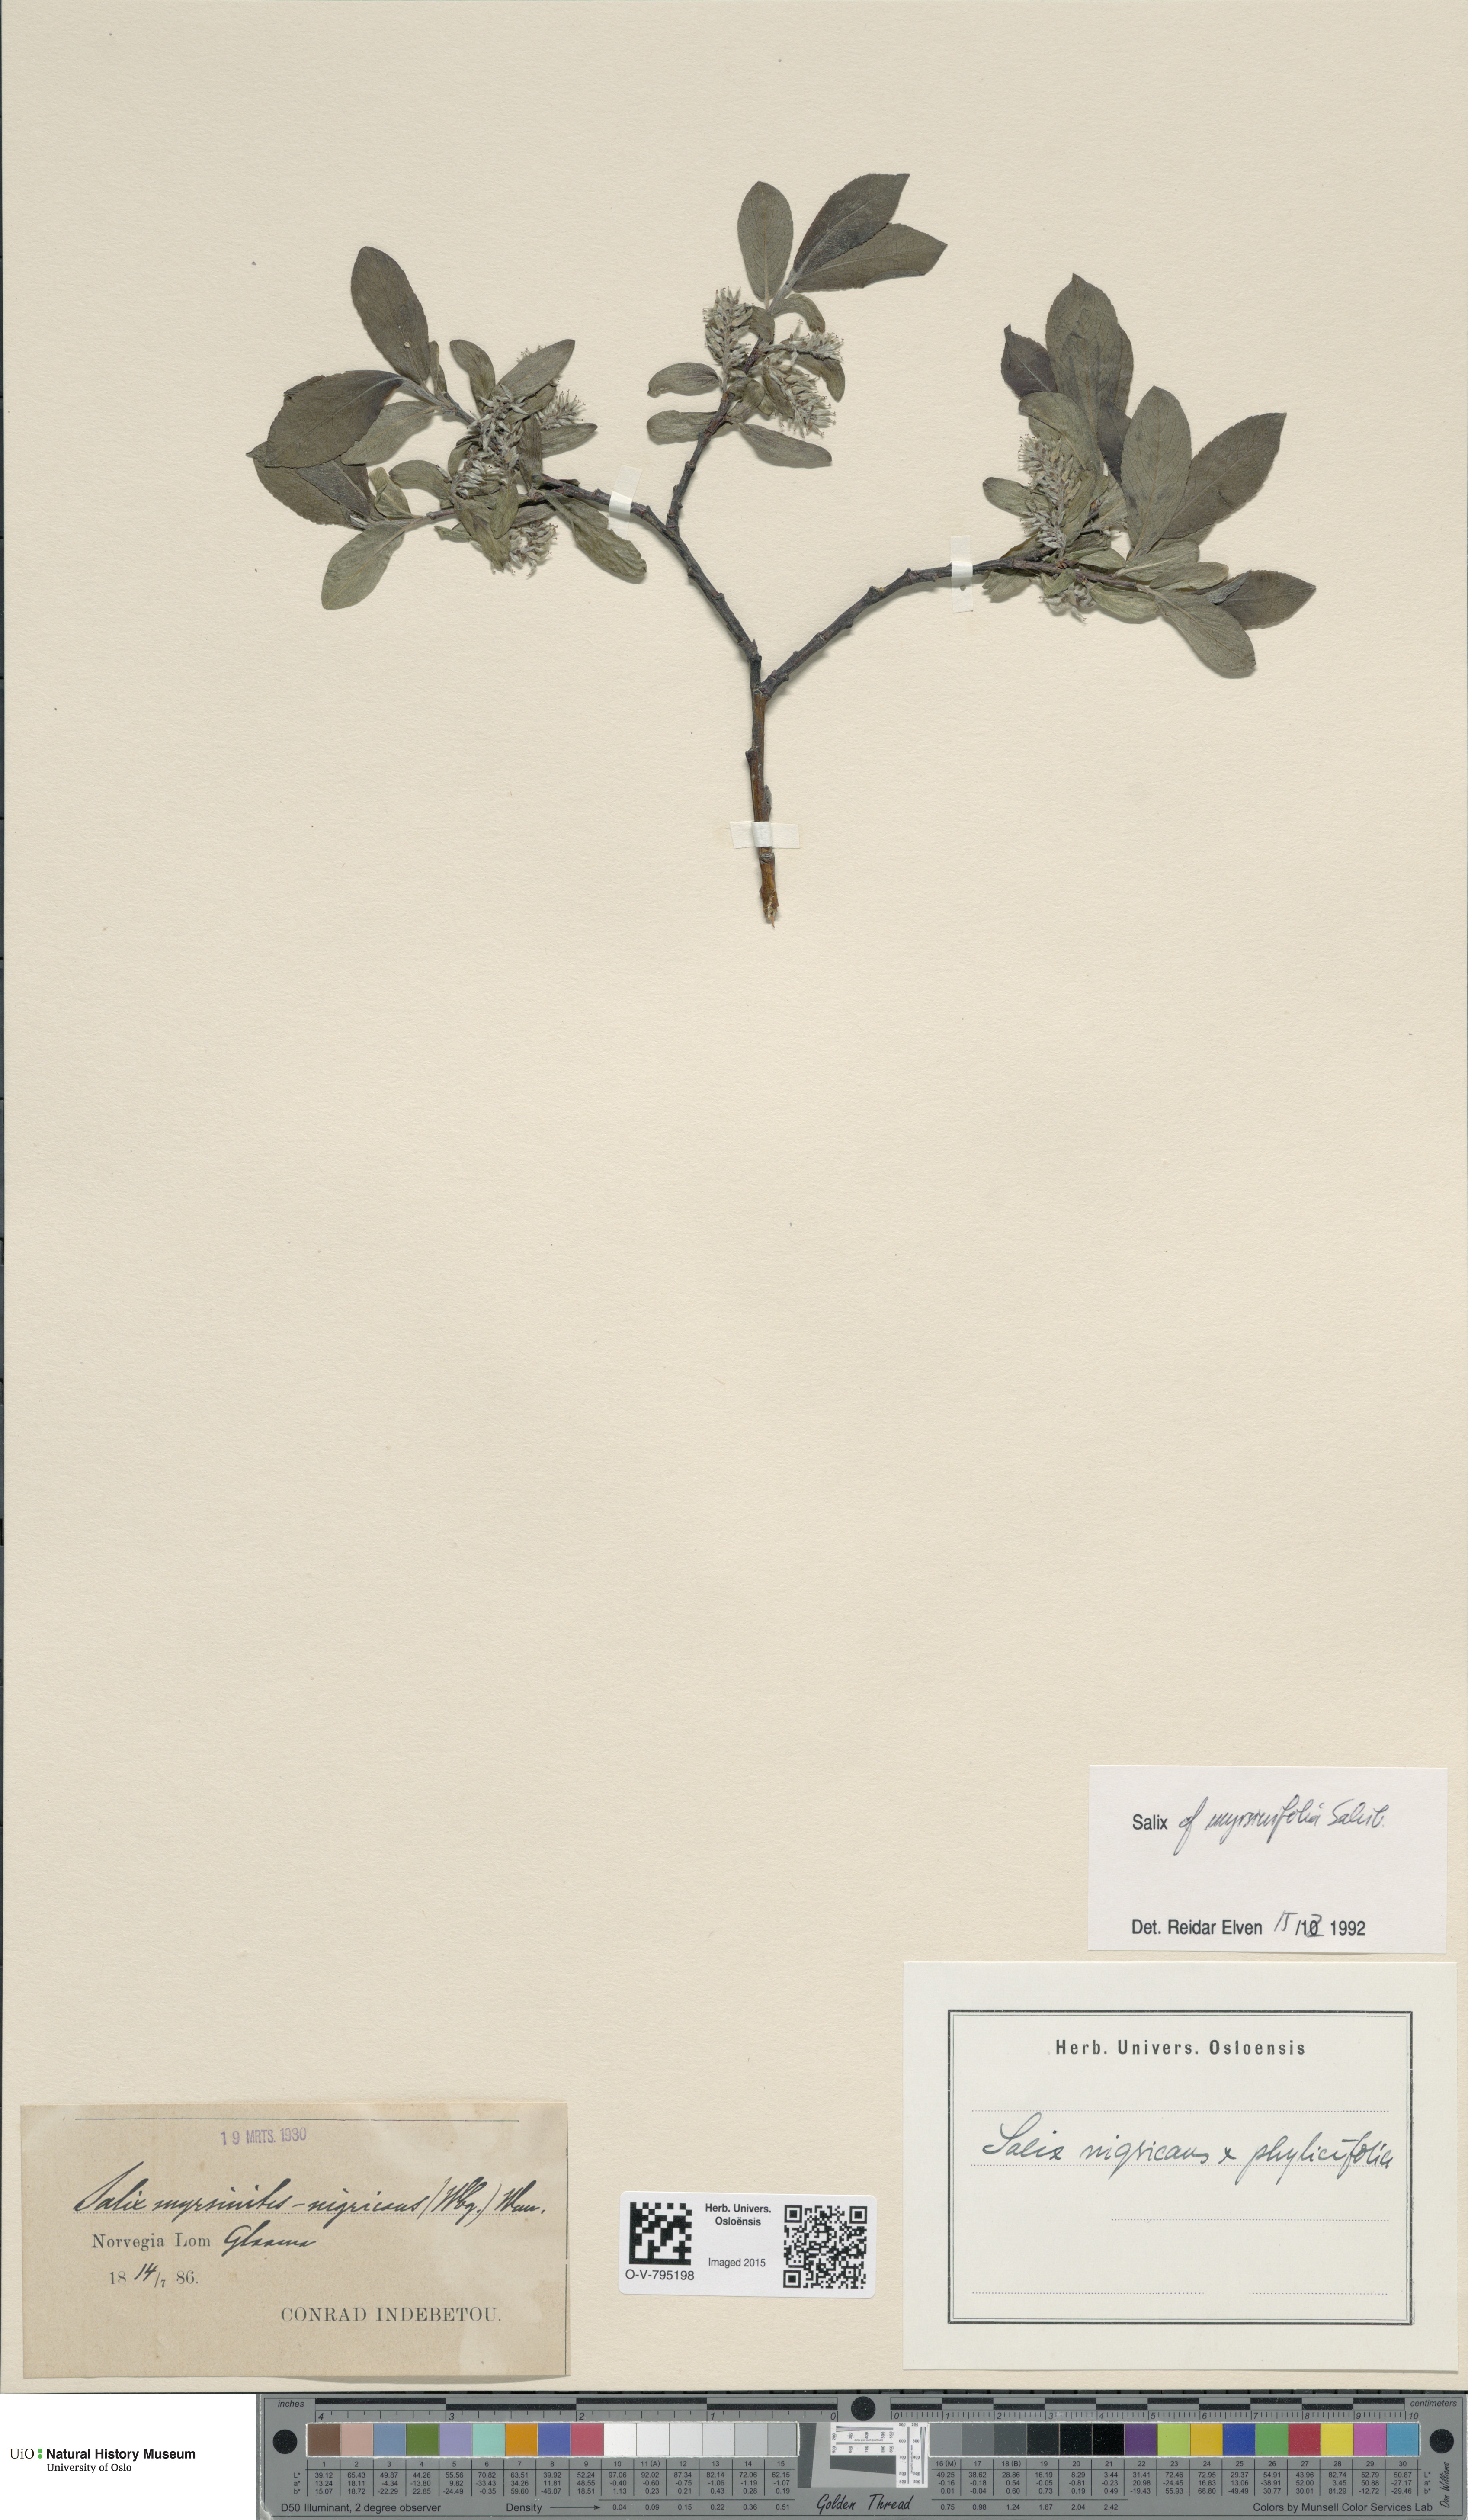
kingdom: Plantae
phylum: Tracheophyta
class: Magnoliopsida
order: Malpighiales
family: Salicaceae
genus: Salix
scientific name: Salix myrsinifolia
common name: Dark-leaved willow
